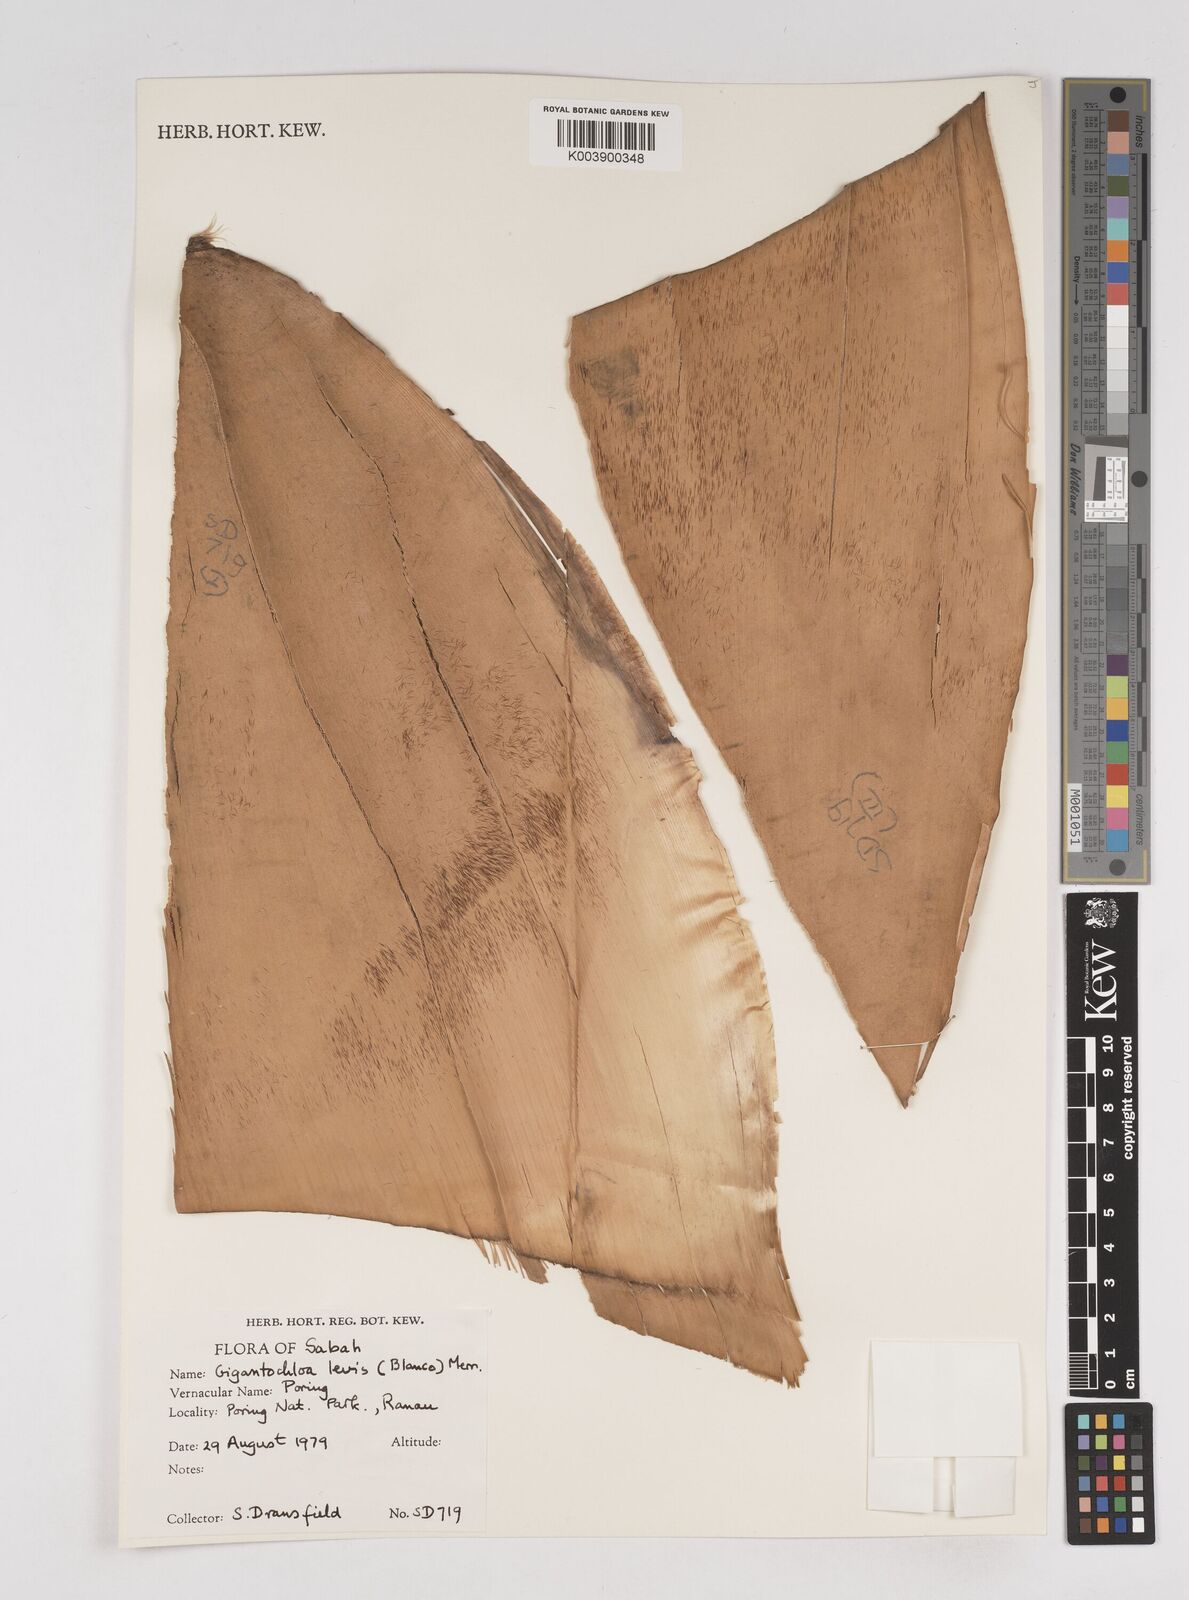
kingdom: Plantae
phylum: Tracheophyta
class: Liliopsida
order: Poales
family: Poaceae
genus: Gigantochloa
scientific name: Gigantochloa levis
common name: Smooth-shoot gigantochloa
